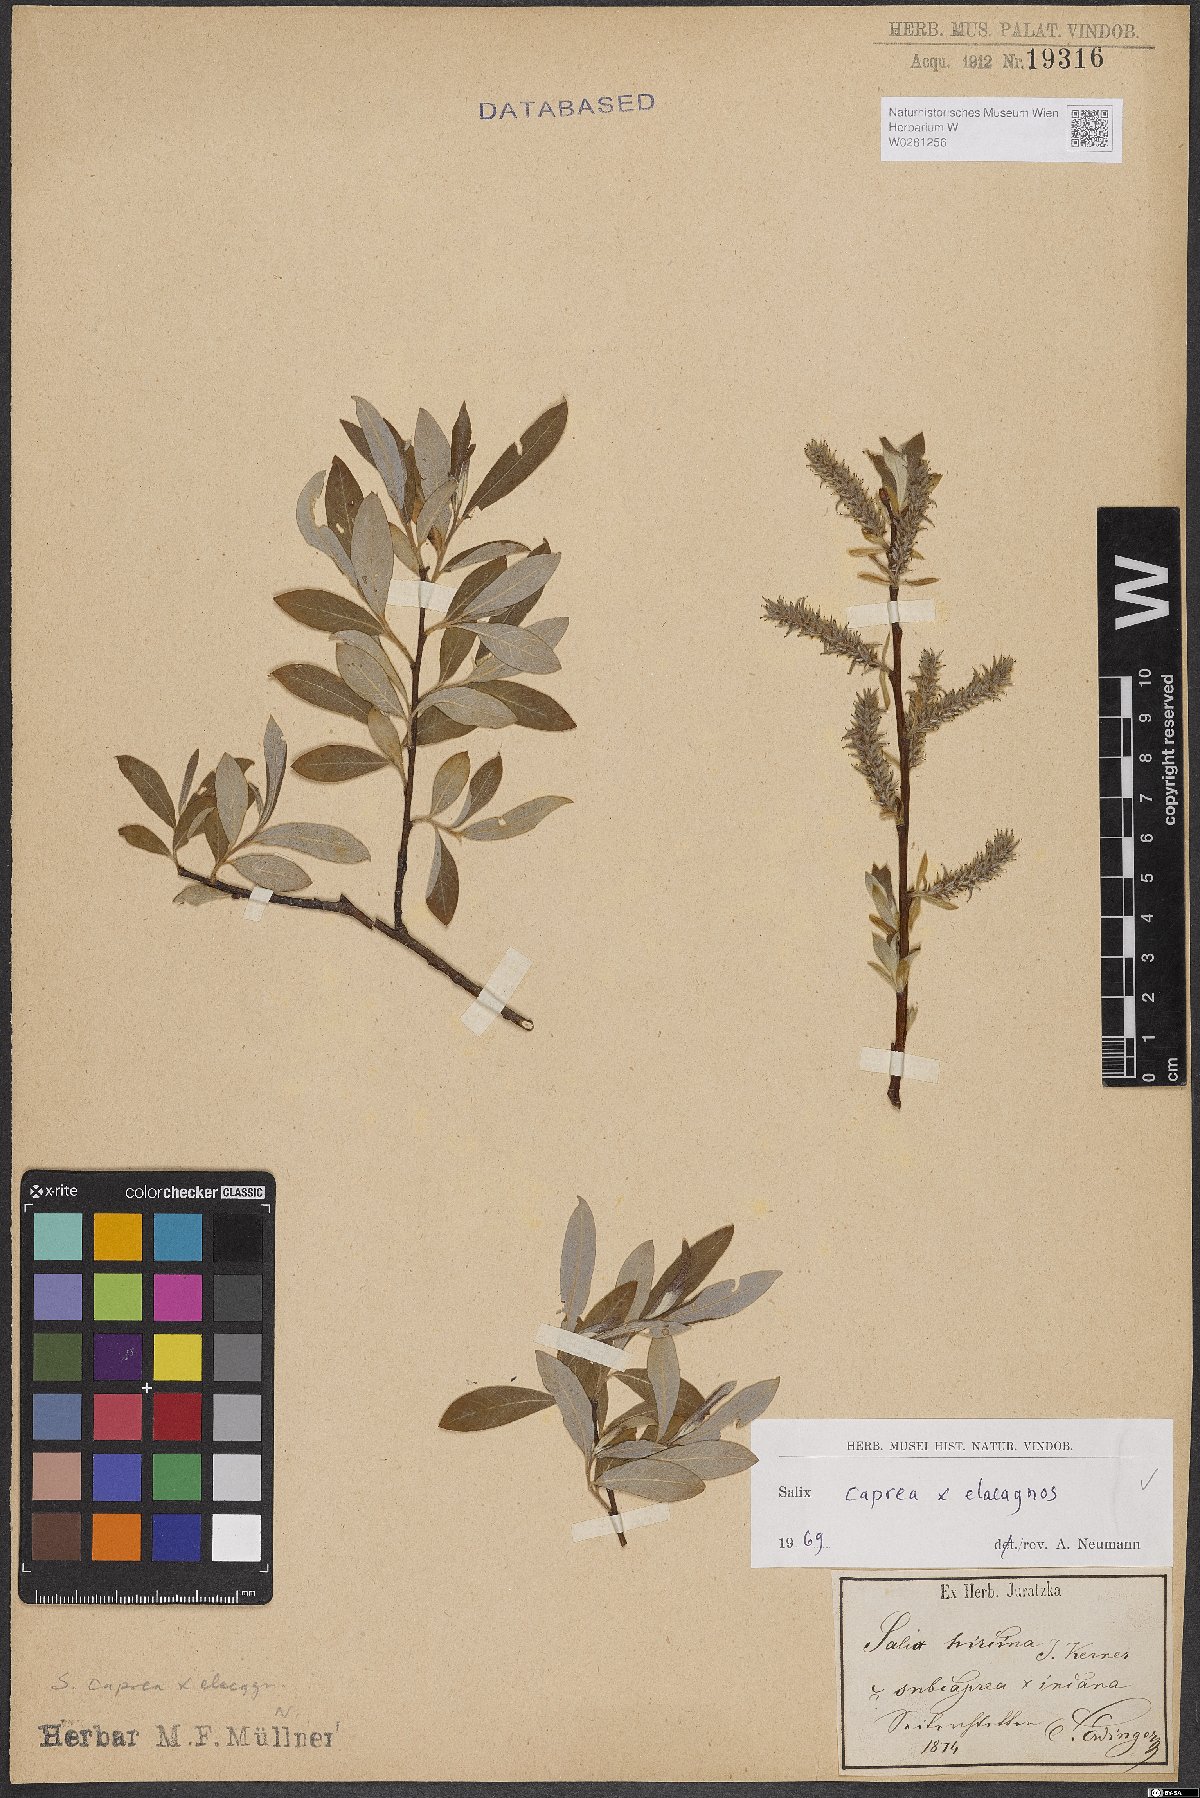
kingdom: Plantae
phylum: Tracheophyta
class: Magnoliopsida
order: Malpighiales
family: Salicaceae
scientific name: Salicaceae
